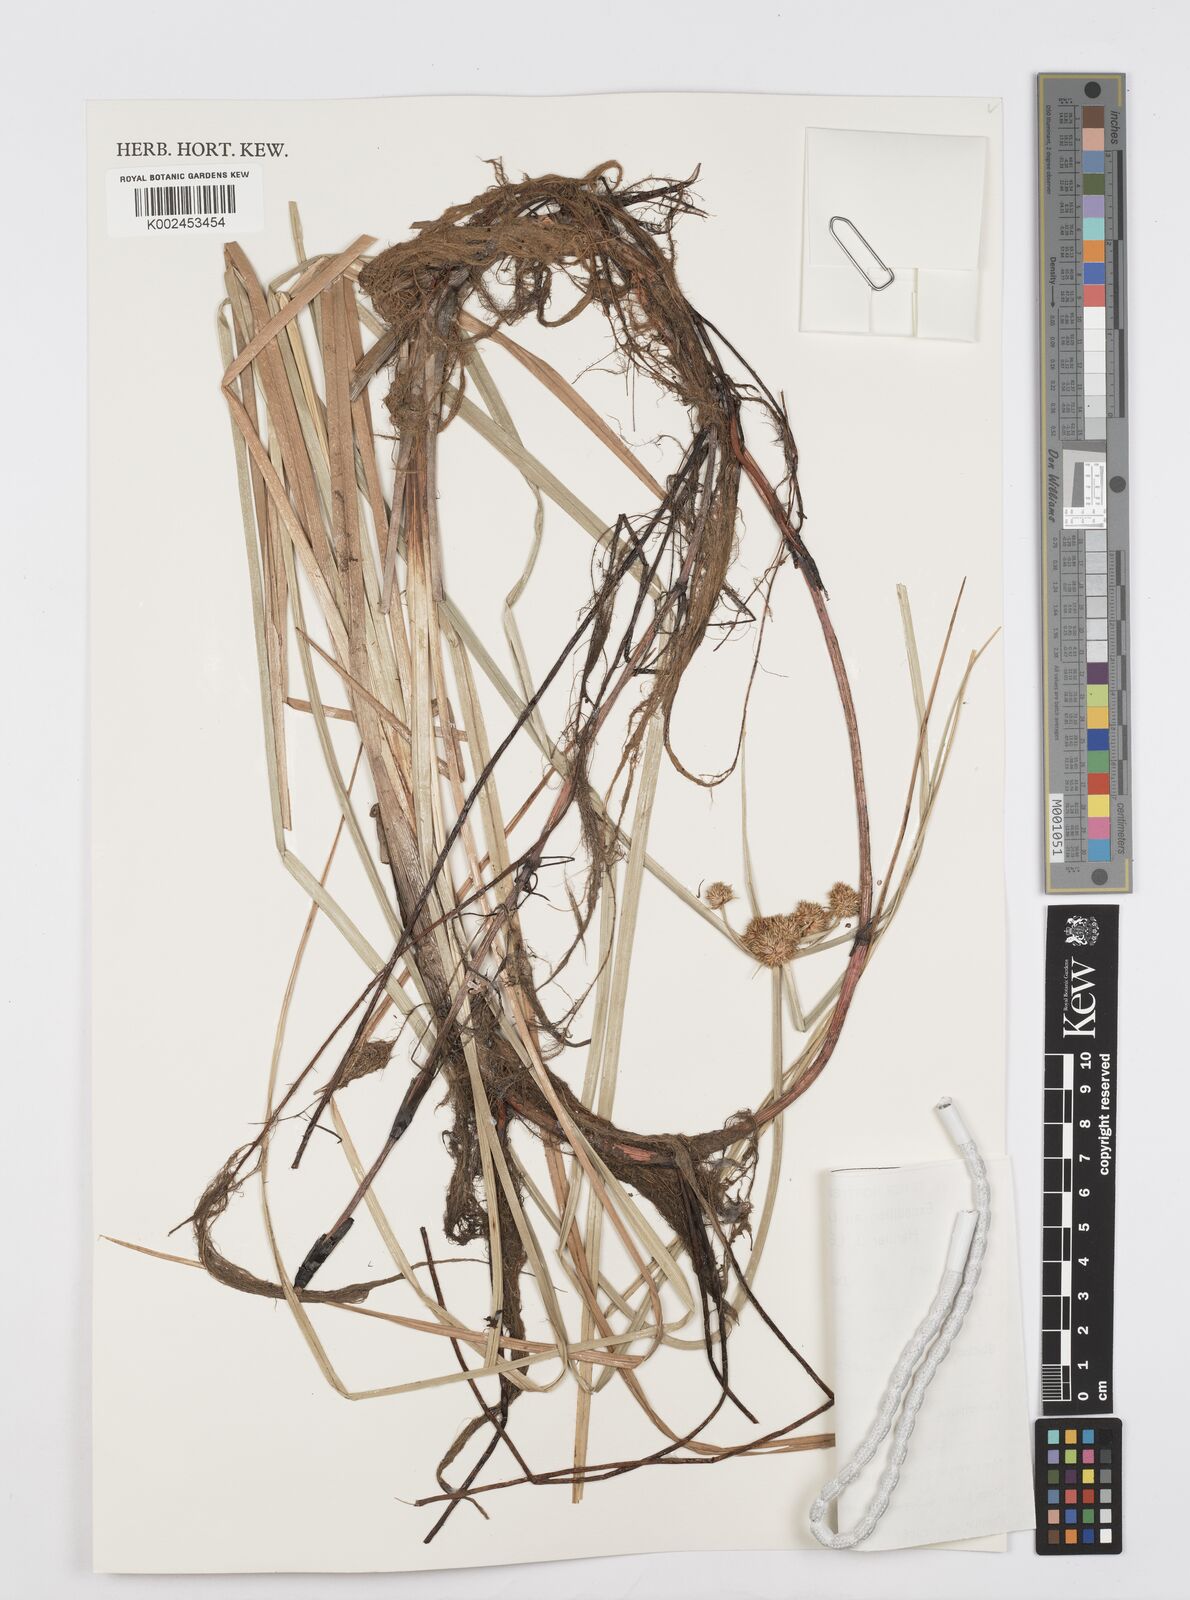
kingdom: Plantae
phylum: Tracheophyta
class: Liliopsida
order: Poales
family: Cyperaceae
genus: Cyperus
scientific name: Cyperus elegans
